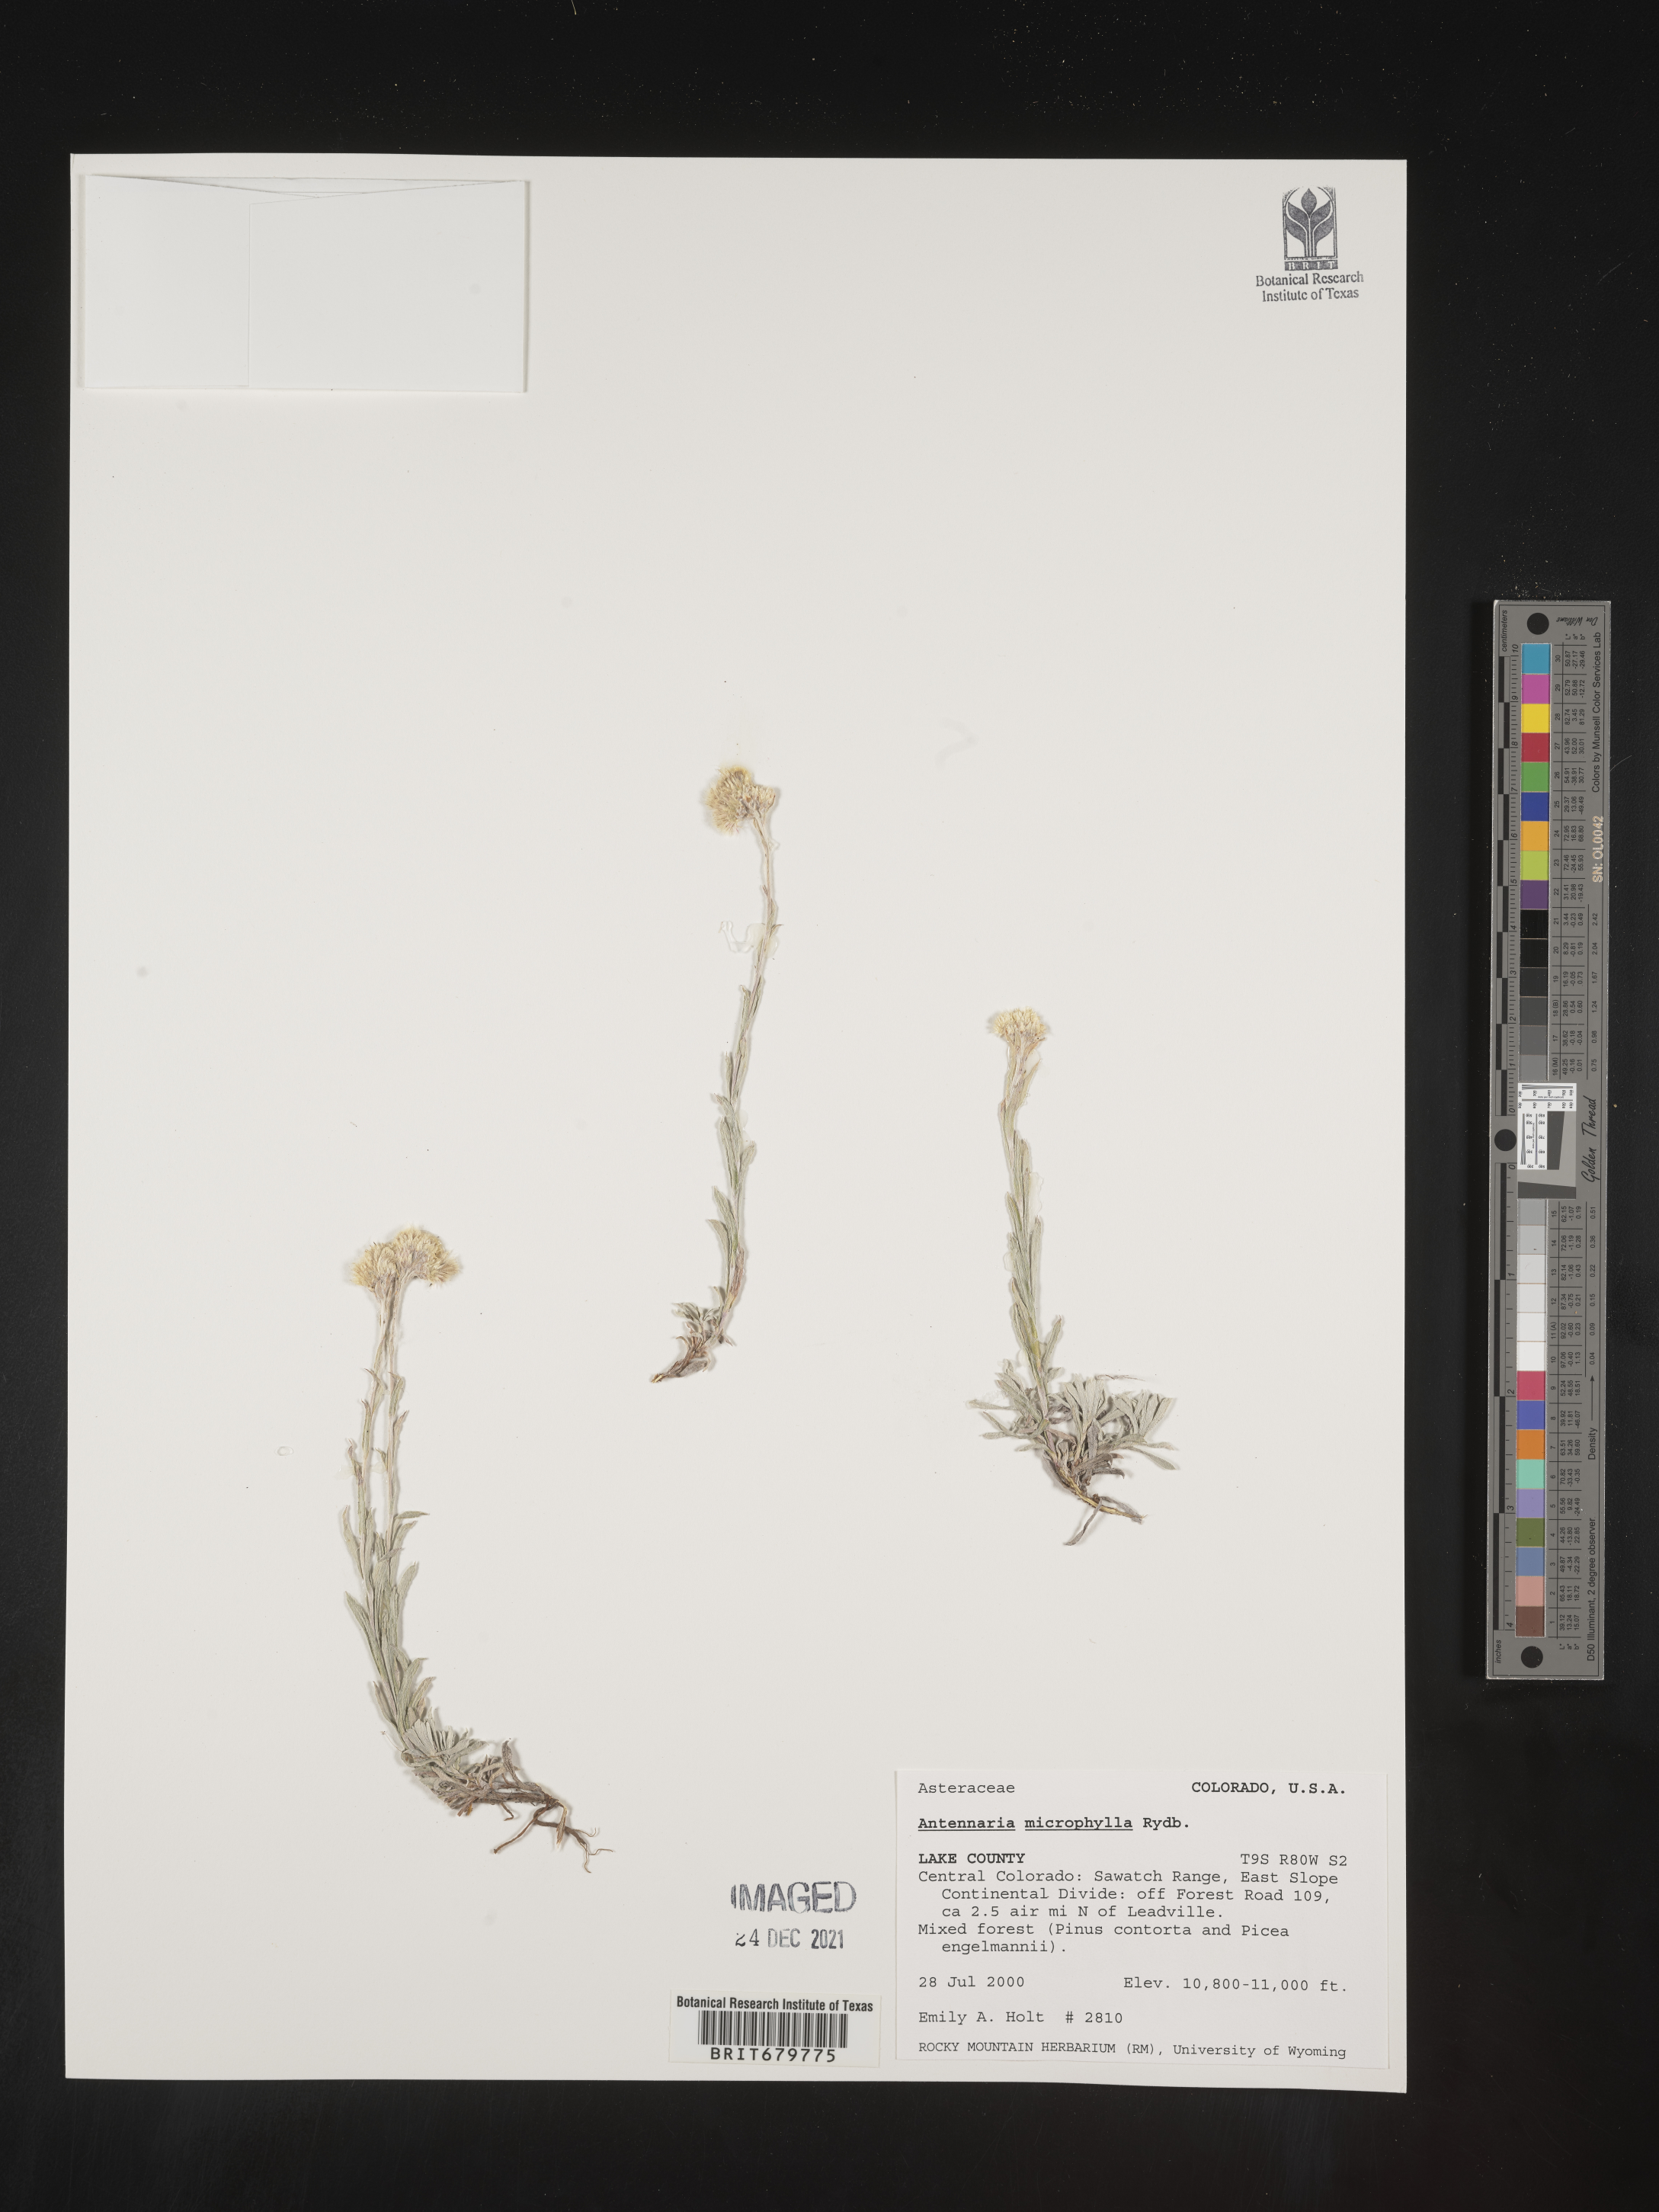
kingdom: Plantae
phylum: Tracheophyta
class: Magnoliopsida
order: Asterales
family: Asteraceae
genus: Antennaria
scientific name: Antennaria microphylla
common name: Littleleaf pussytoes
